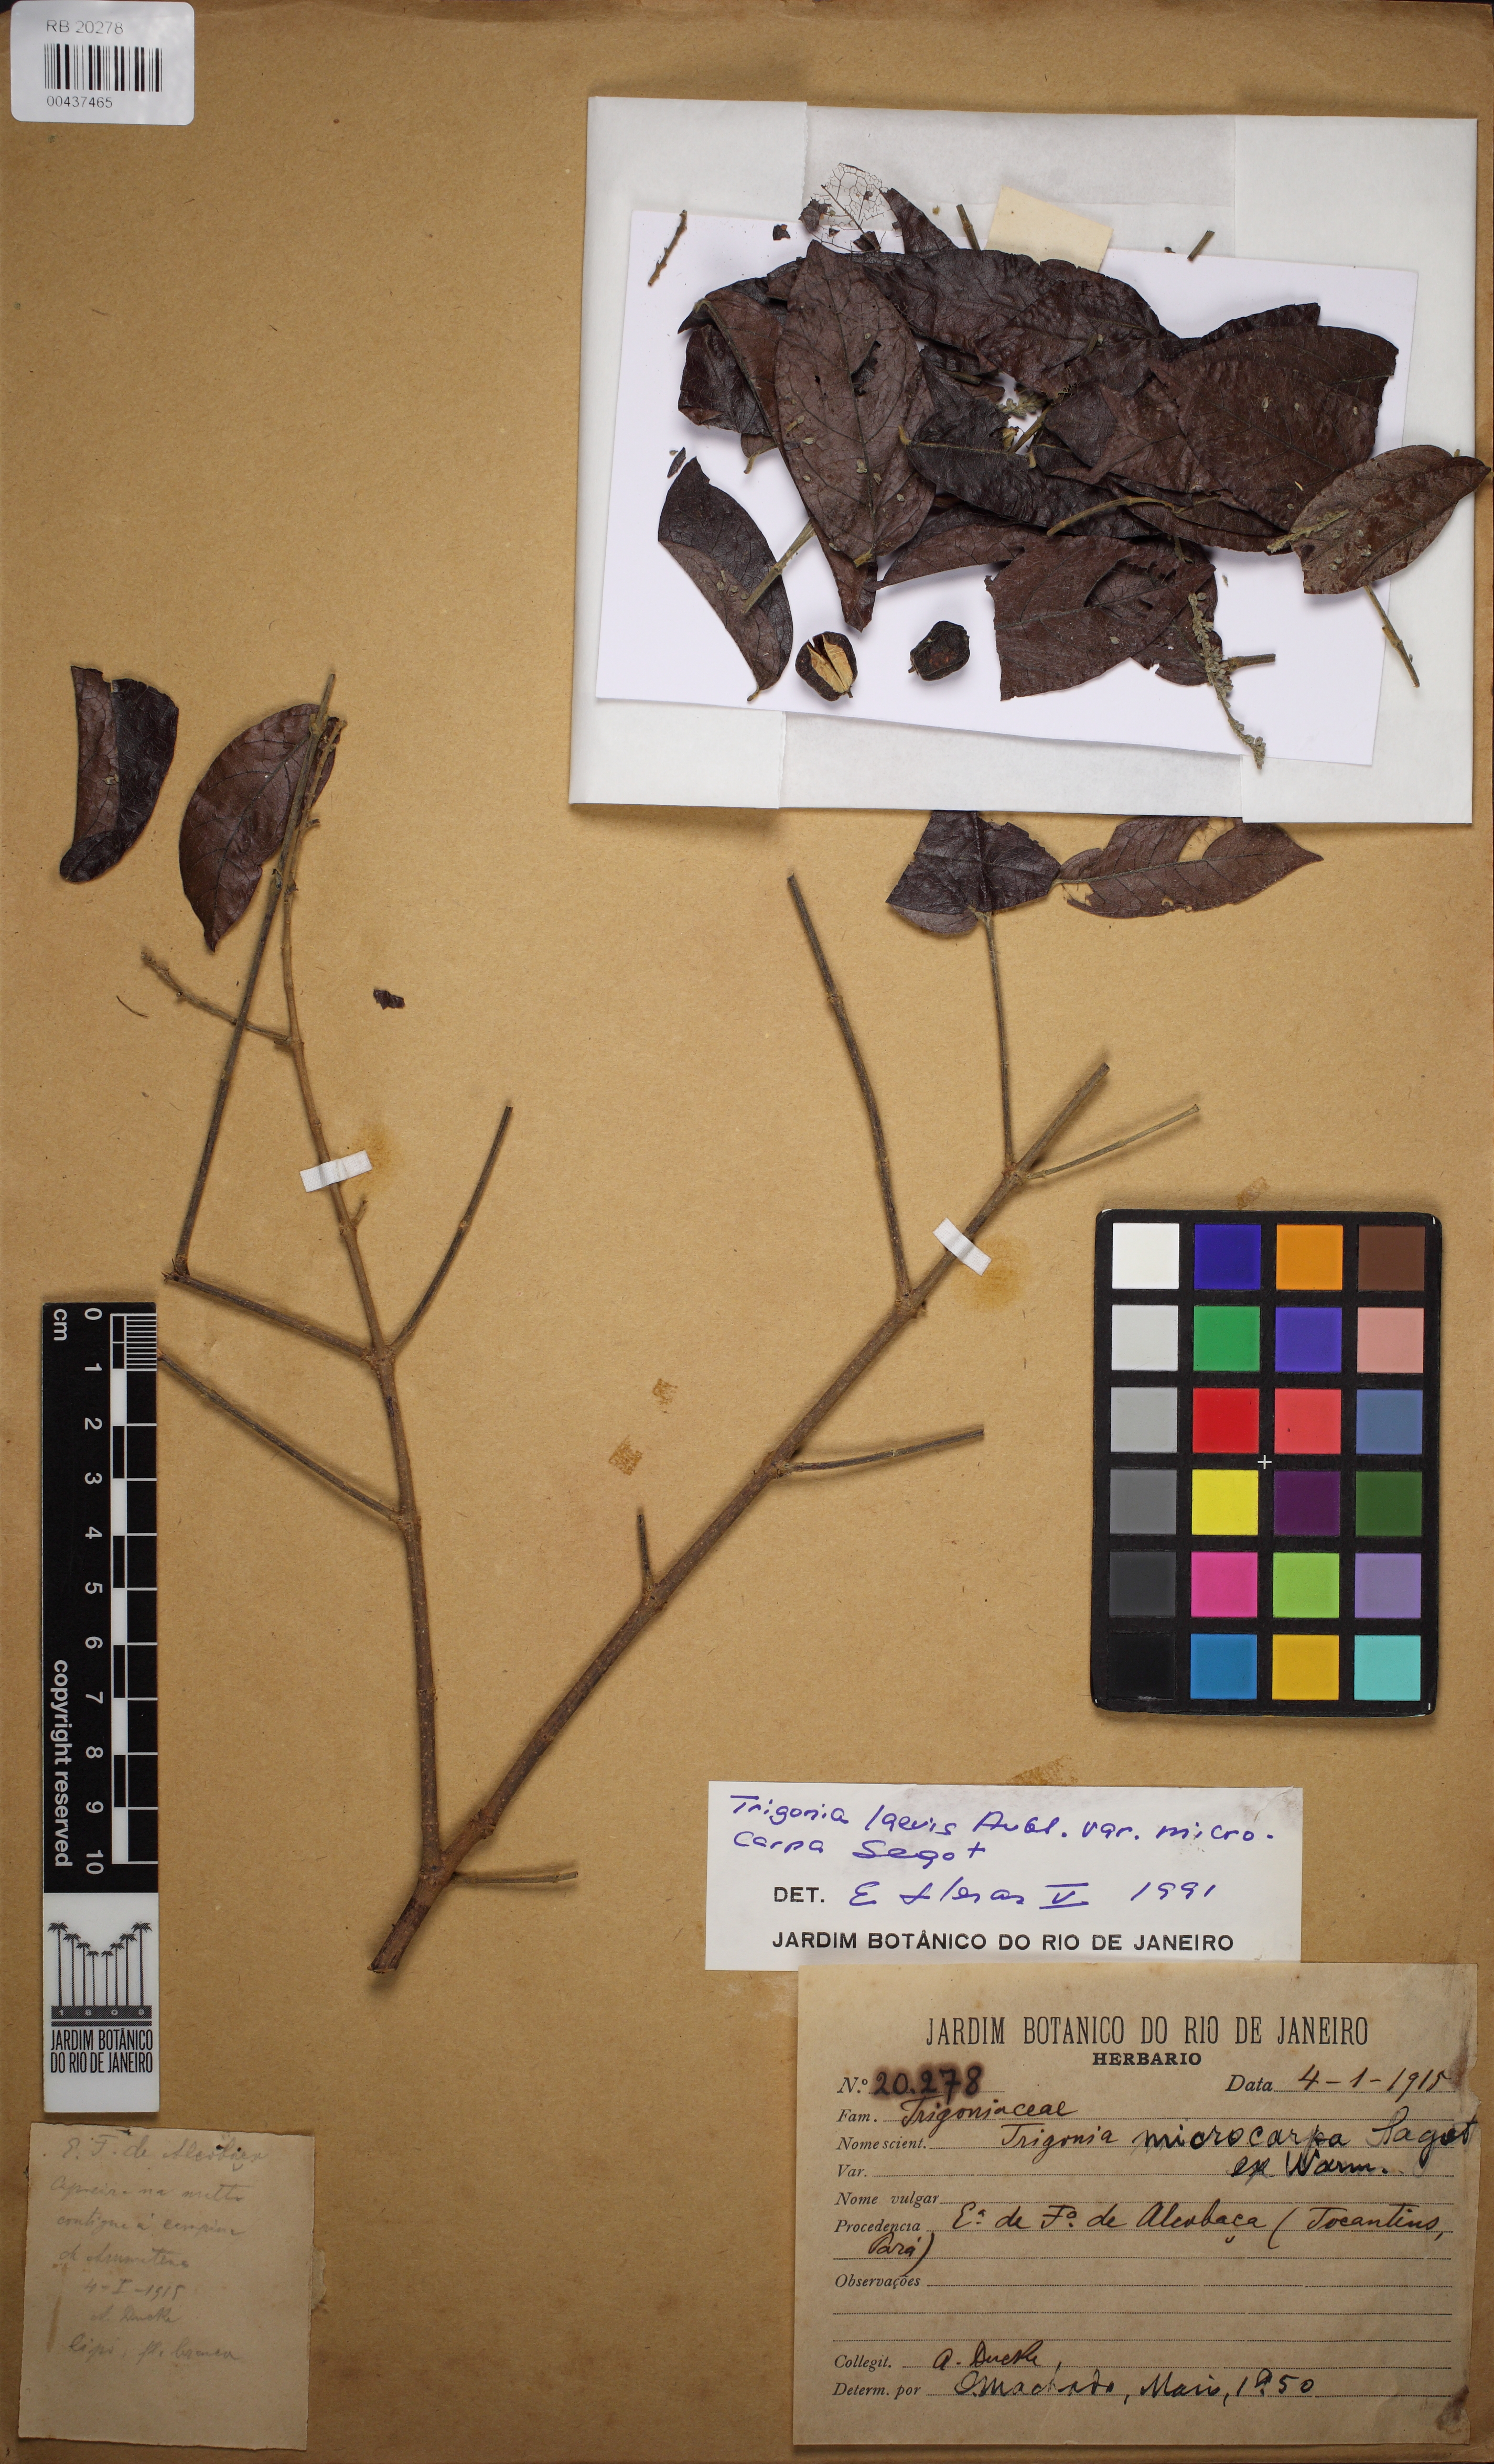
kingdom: Plantae
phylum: Tracheophyta
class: Magnoliopsida
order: Malpighiales
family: Trigoniaceae
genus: Trigonia
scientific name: Trigonia microcarpa
